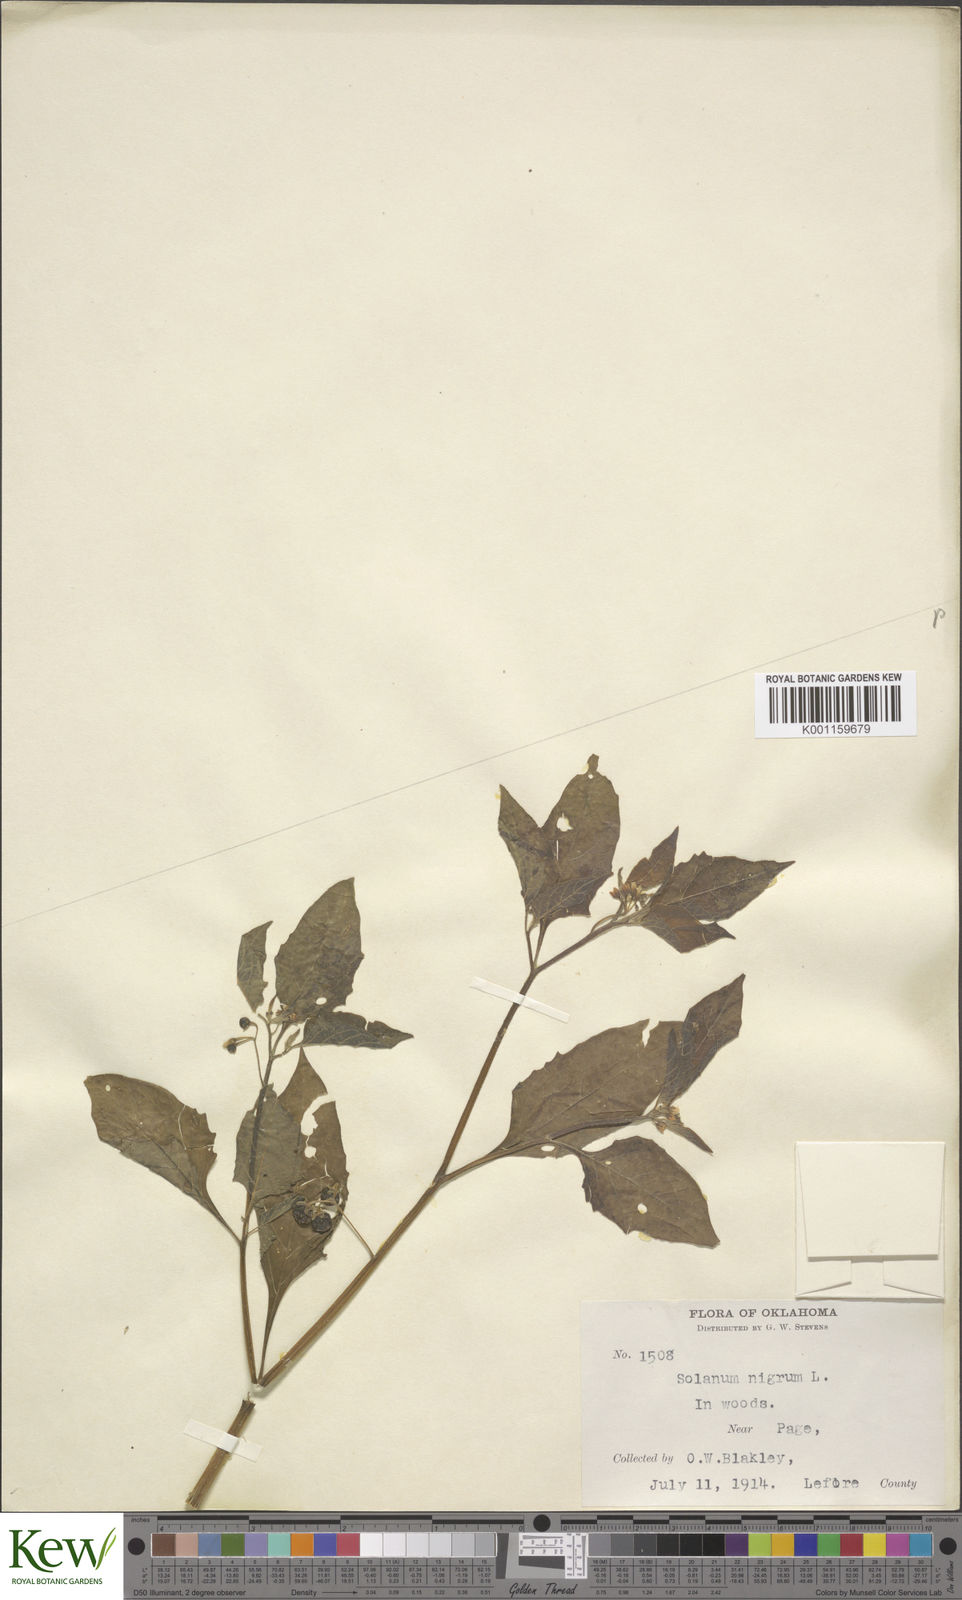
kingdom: Plantae
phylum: Tracheophyta
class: Magnoliopsida
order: Solanales
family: Solanaceae
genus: Solanum
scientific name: Solanum emulans
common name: Eastern black nightshade
